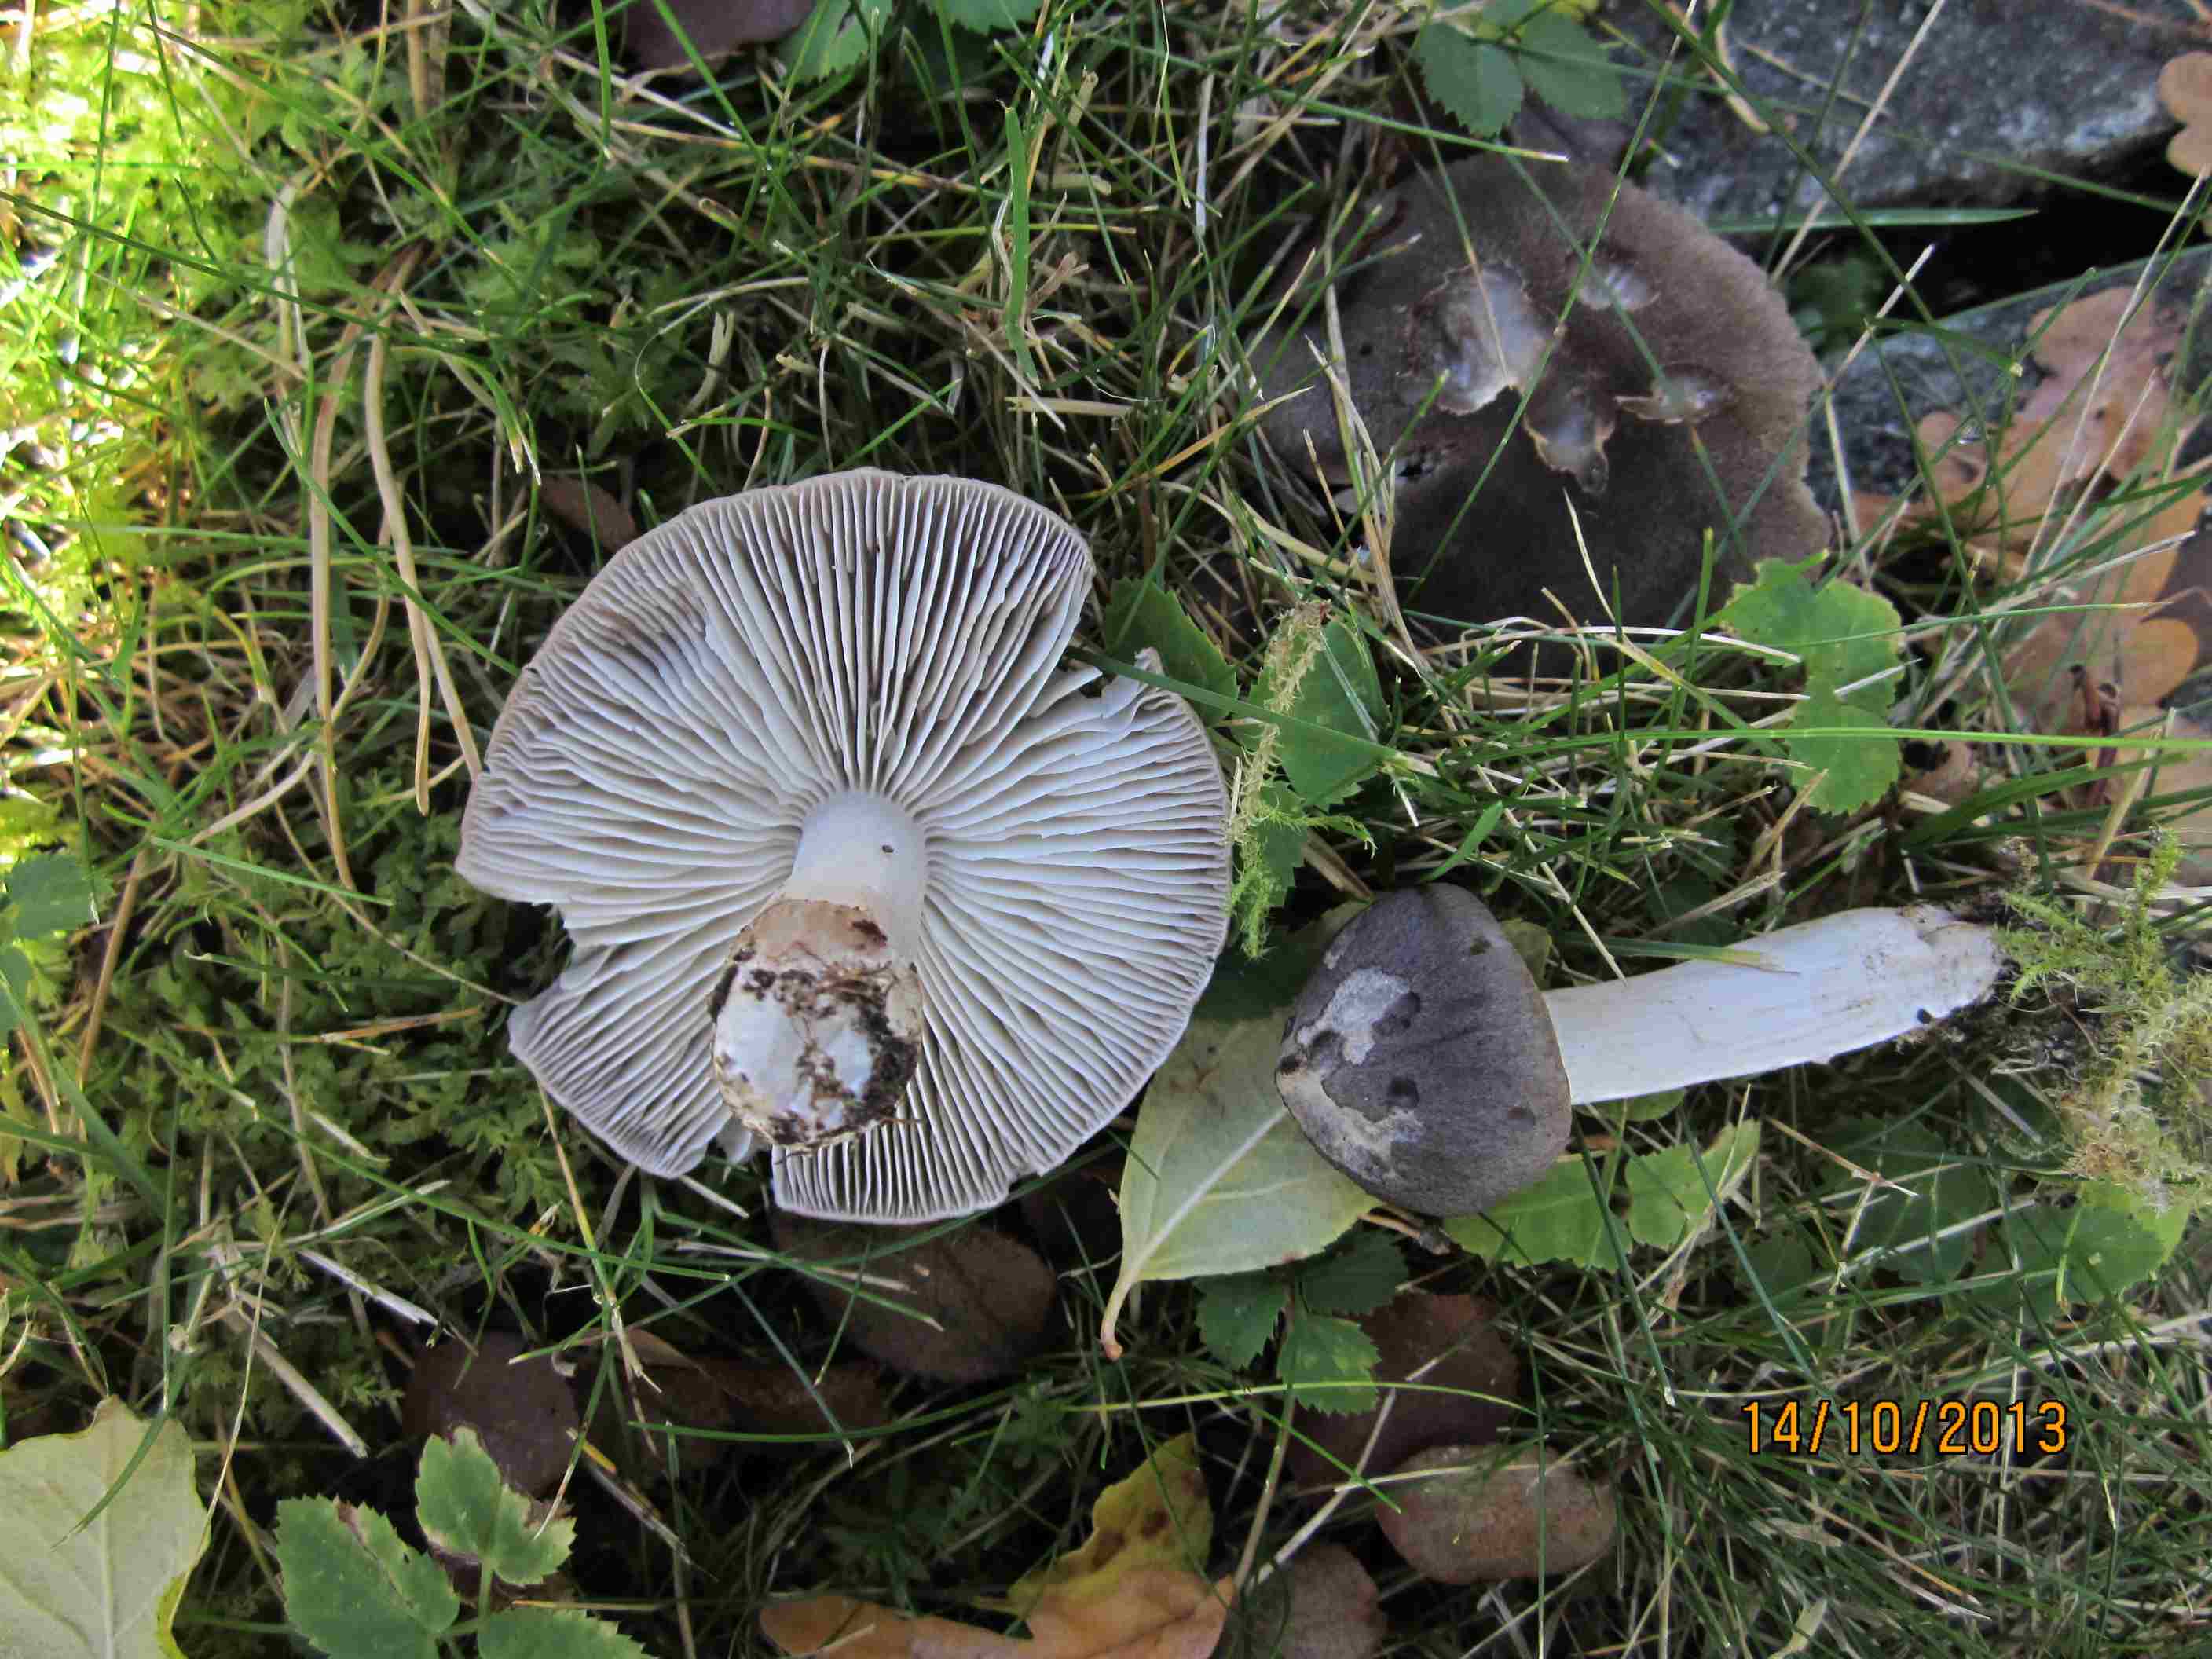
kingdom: Fungi
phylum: Basidiomycota
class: Agaricomycetes
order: Agaricales
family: Tricholomataceae
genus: Tricholoma
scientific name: Tricholoma portentosum
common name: grå ridderhat
